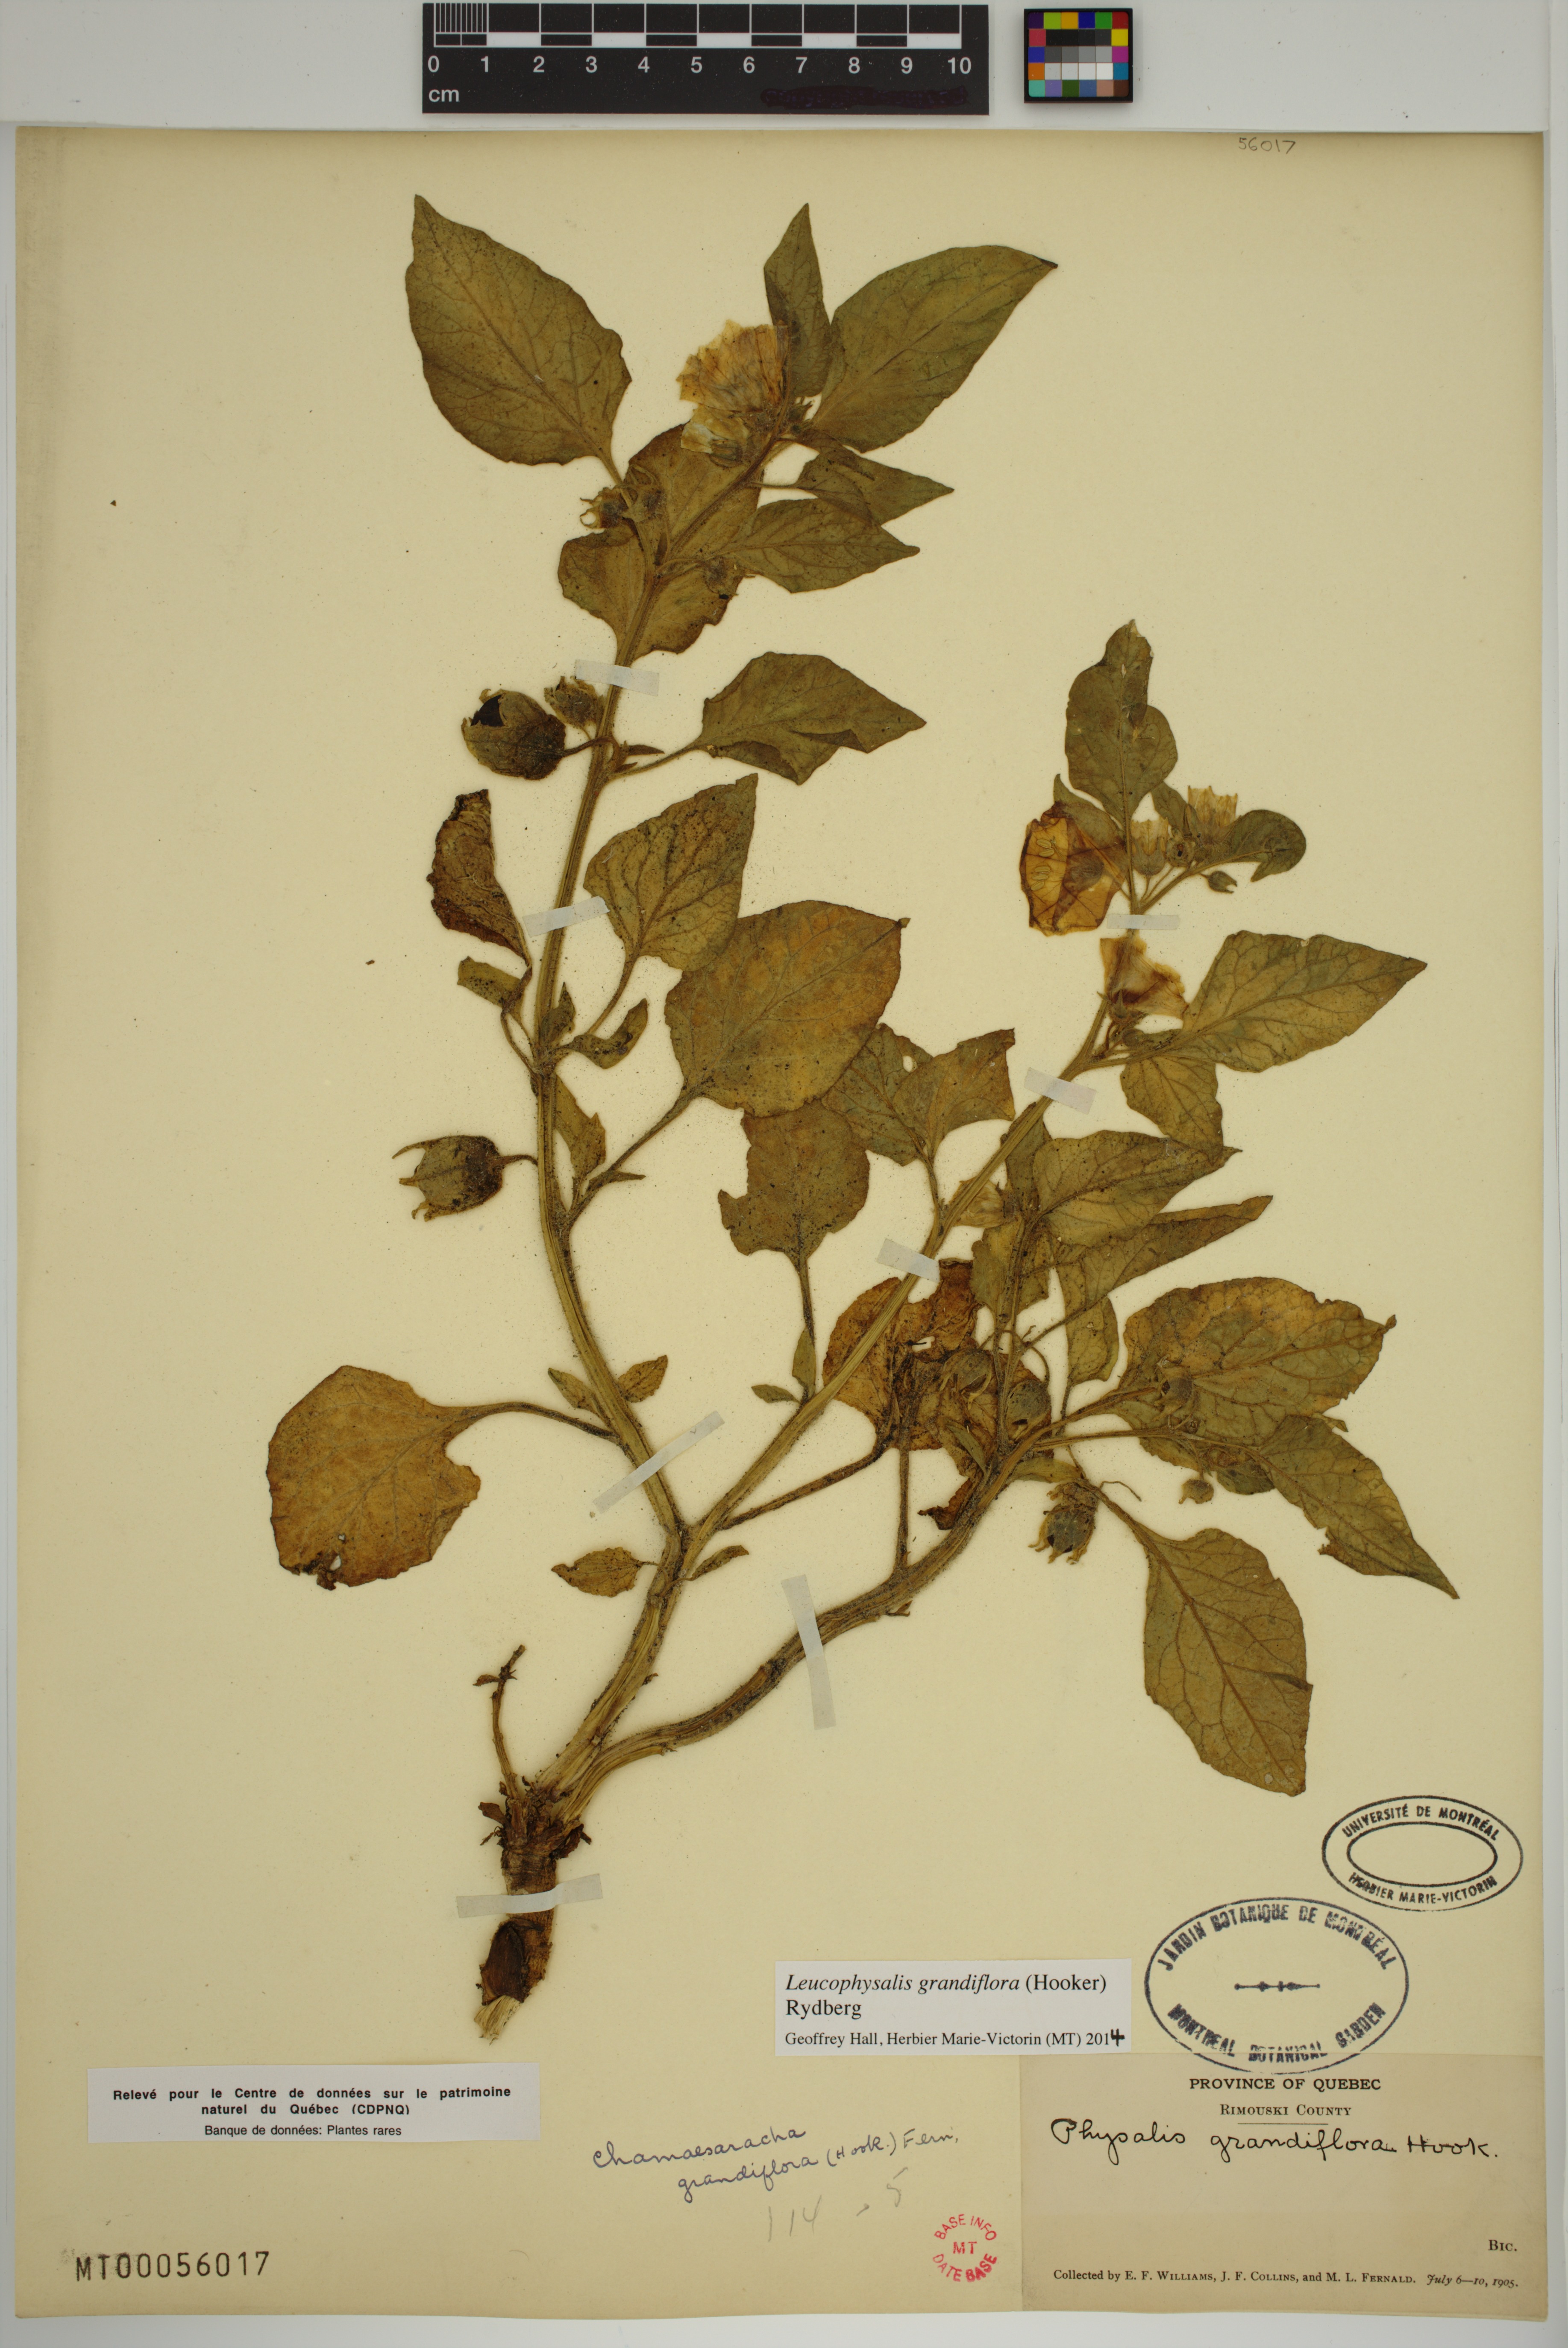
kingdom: Plantae
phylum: Tracheophyta
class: Magnoliopsida
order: Solanales
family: Solanaceae
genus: Leucophysalis
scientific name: Leucophysalis grandiflora
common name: Large false ground-cherry
